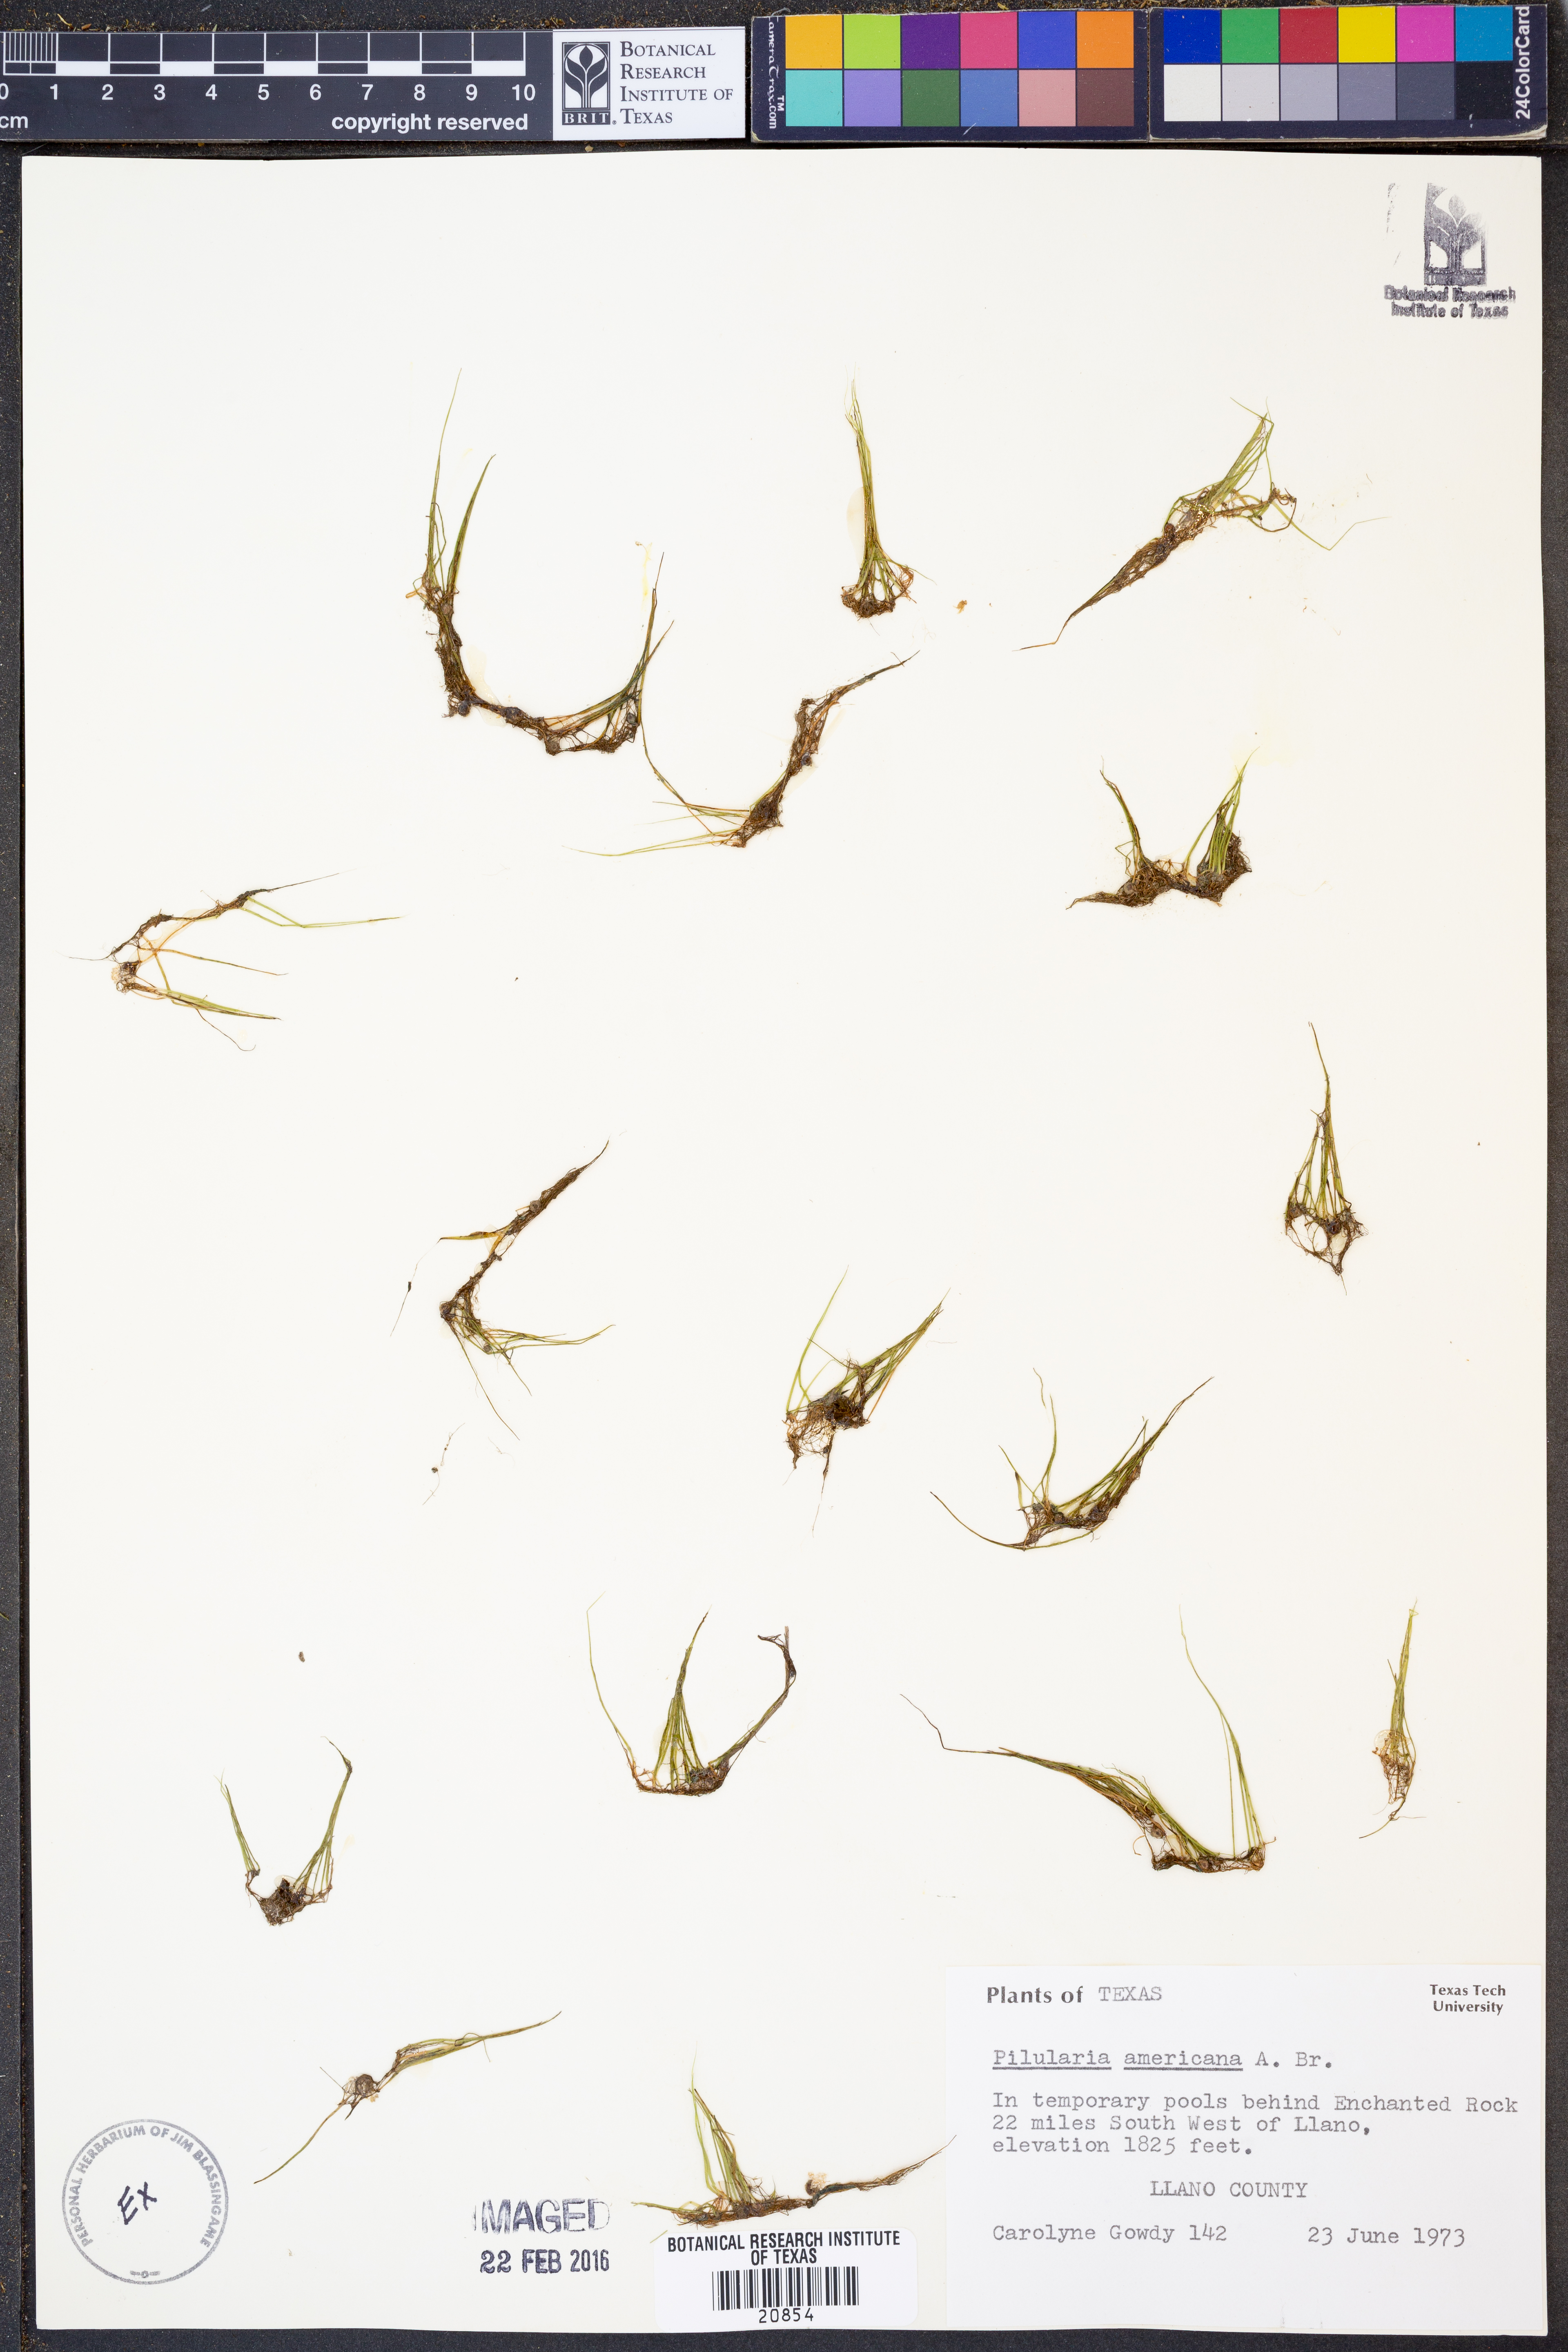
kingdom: Plantae
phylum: Tracheophyta
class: Polypodiopsida
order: Salviniales
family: Marsileaceae
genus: Pilularia
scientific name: Pilularia americana
